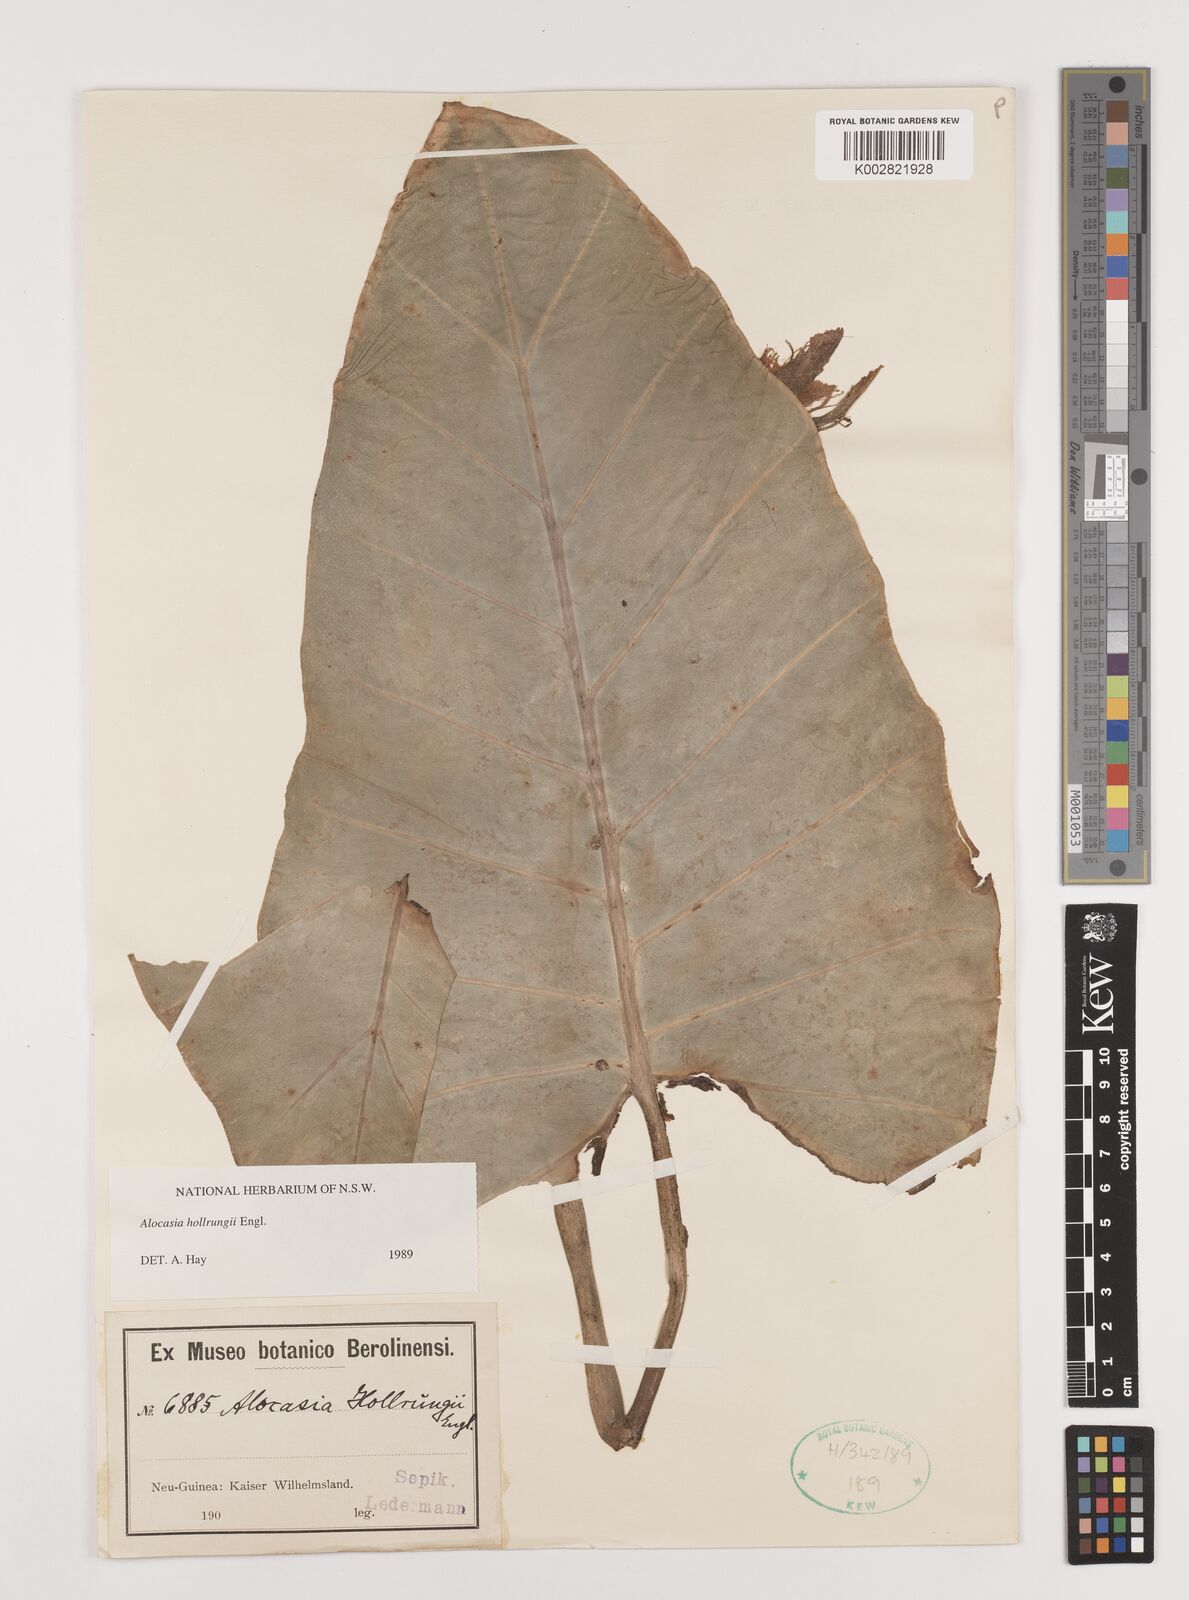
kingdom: Plantae
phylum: Tracheophyta
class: Liliopsida
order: Alismatales
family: Araceae
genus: Alocasia
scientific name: Alocasia hollrungii
